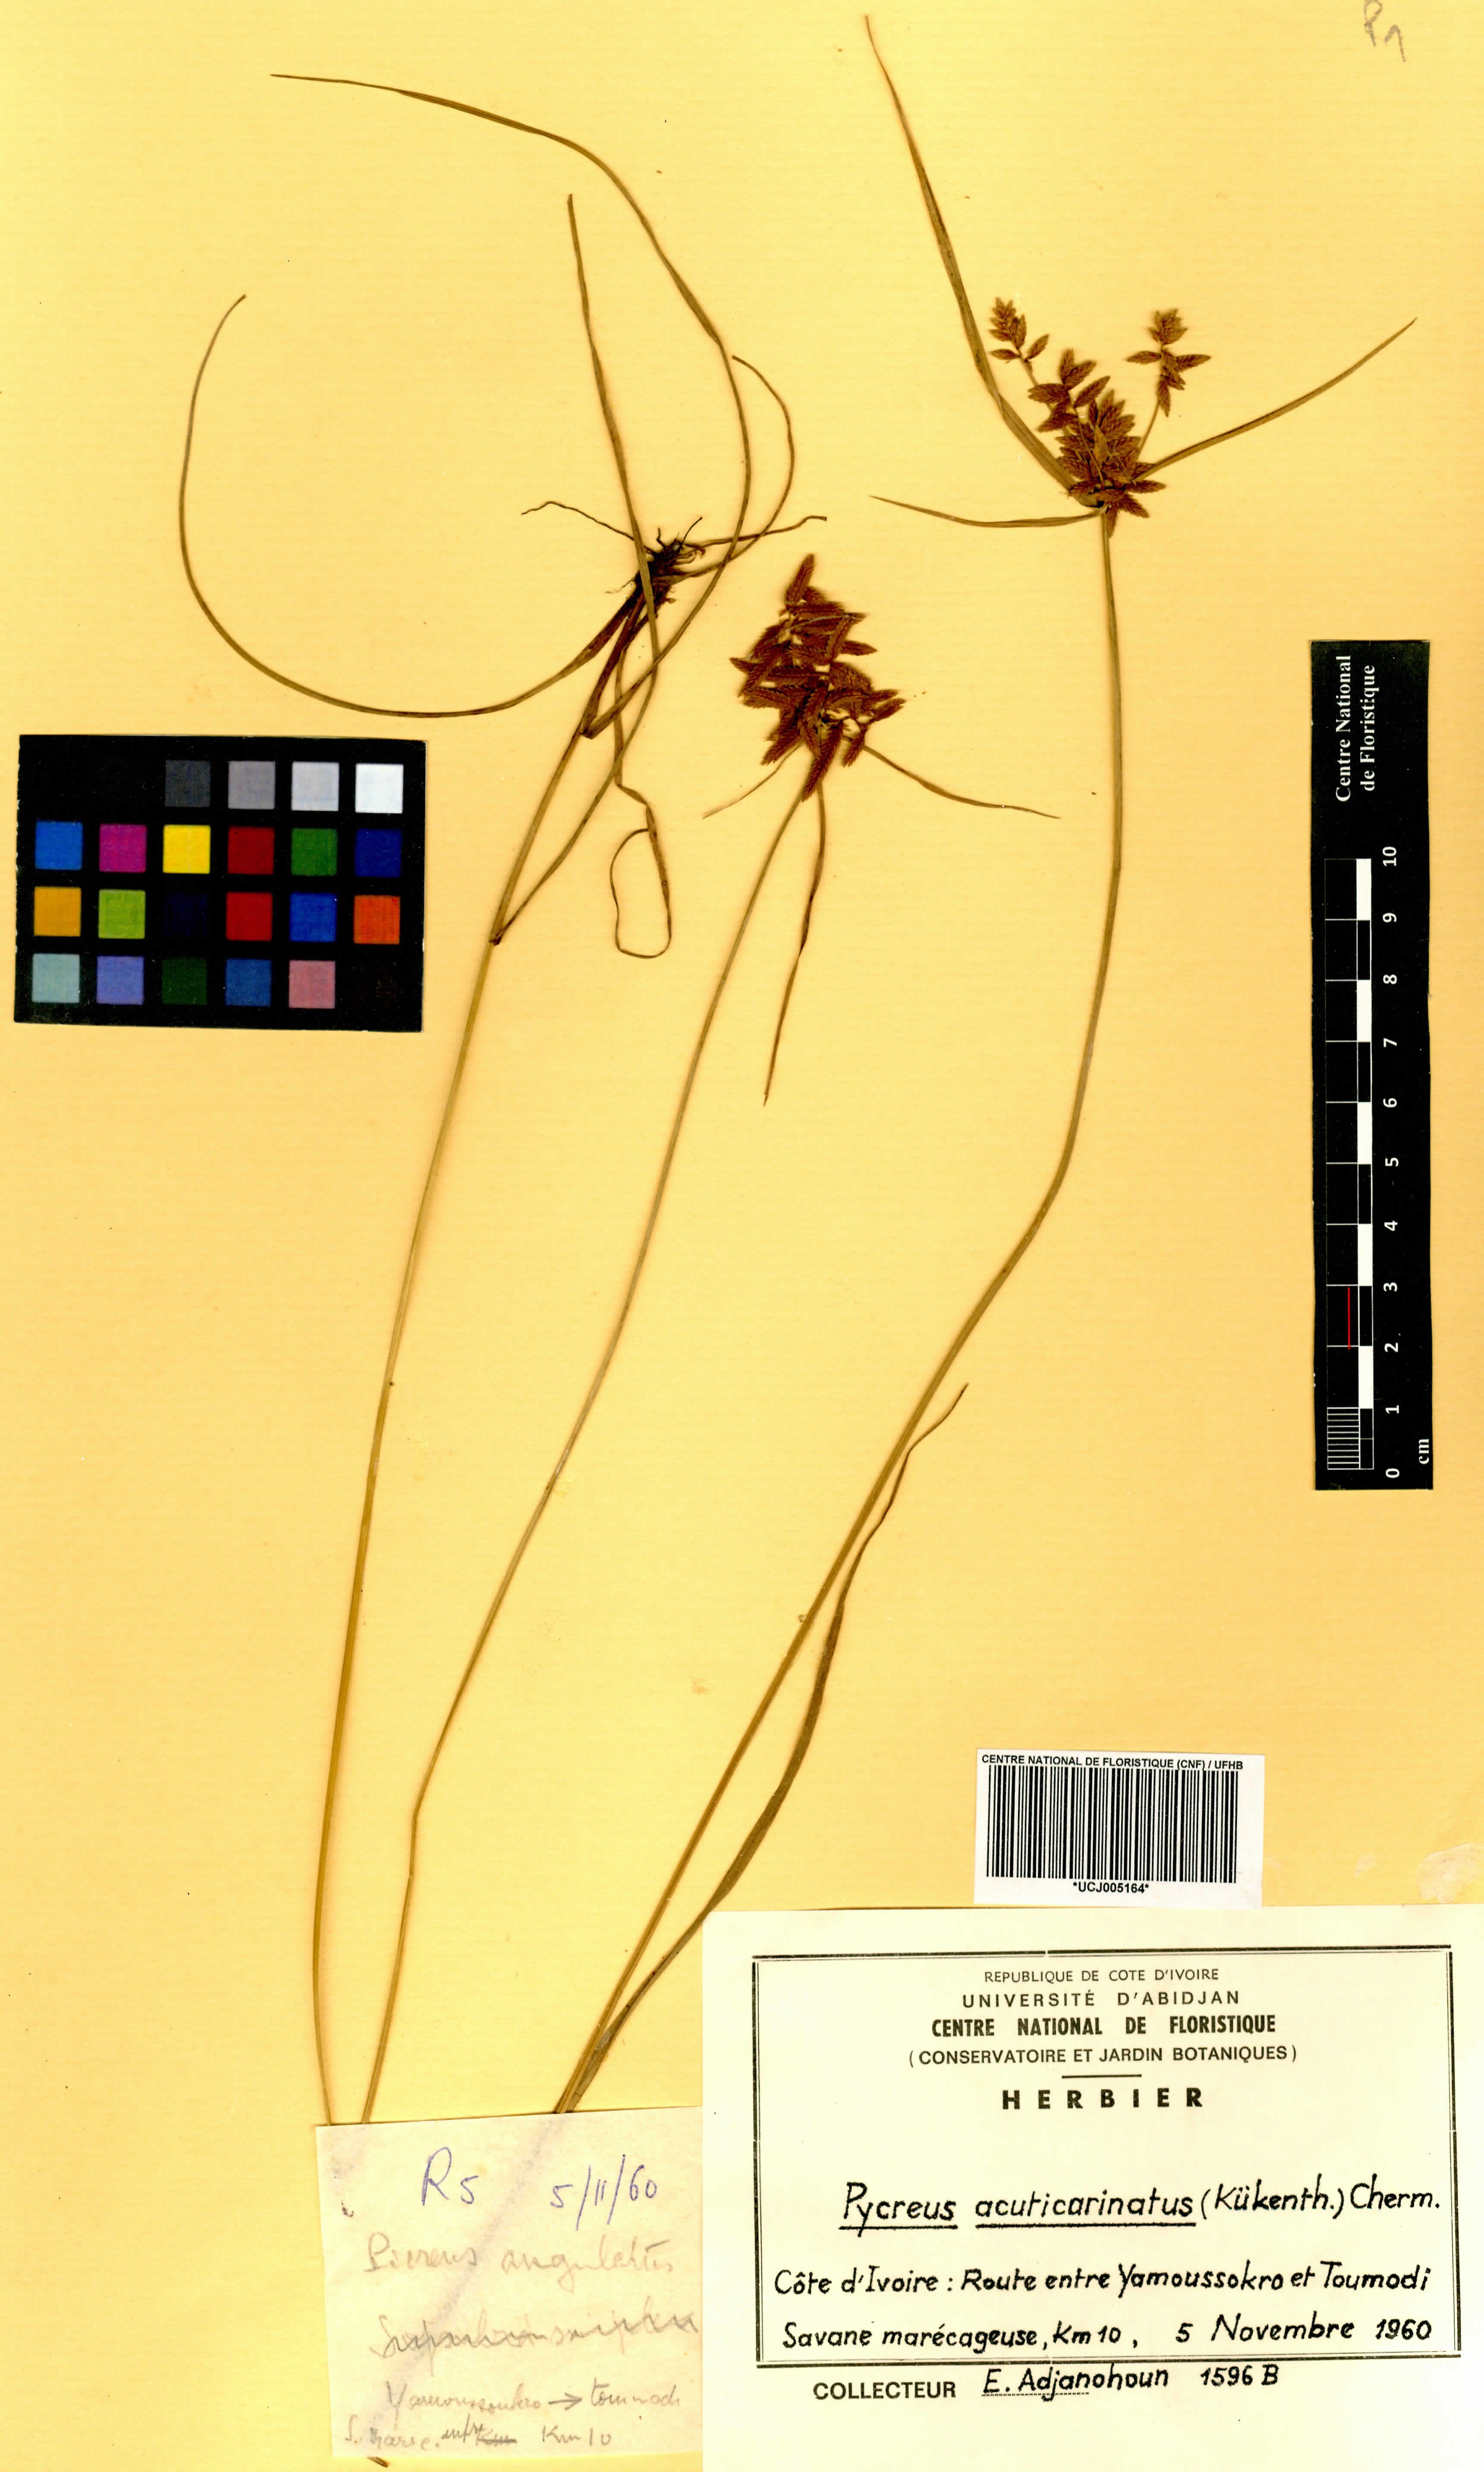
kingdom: Plantae
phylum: Tracheophyta
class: Liliopsida
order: Poales
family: Cyperaceae
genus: Cyperus
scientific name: Cyperus acuticarinatus
